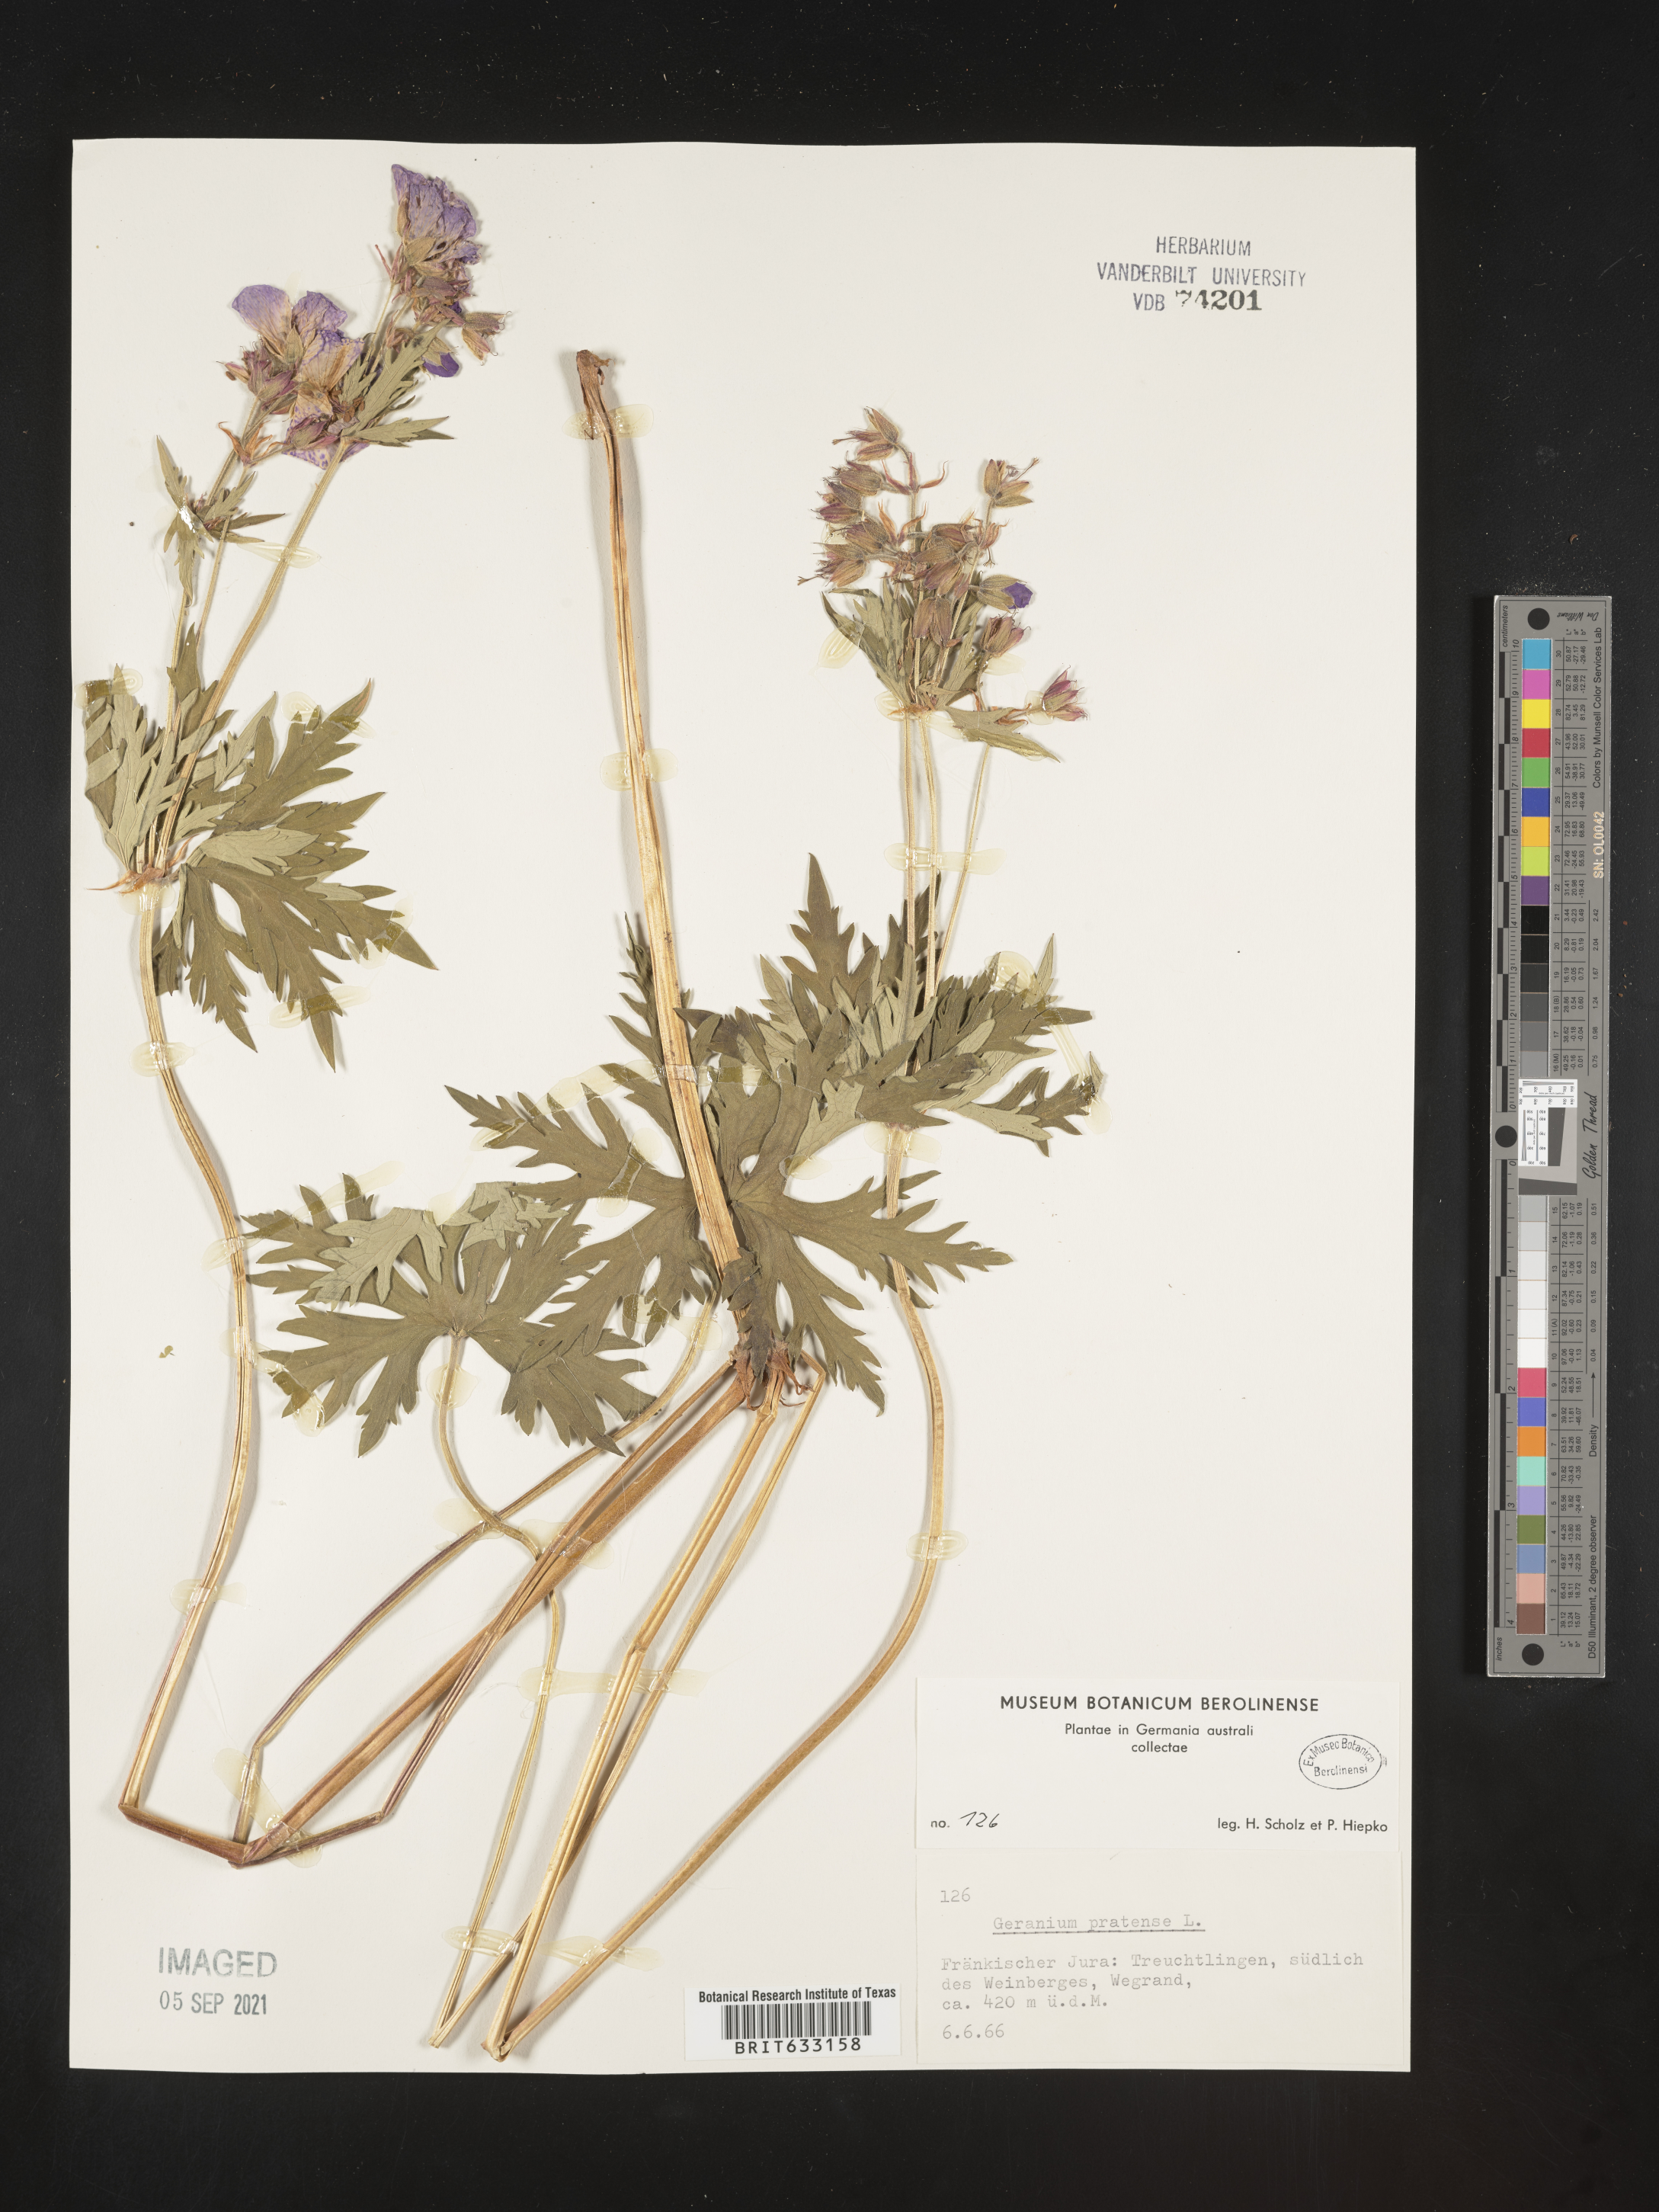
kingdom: Plantae
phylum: Tracheophyta
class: Magnoliopsida
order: Geraniales
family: Geraniaceae
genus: Geranium
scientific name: Geranium
